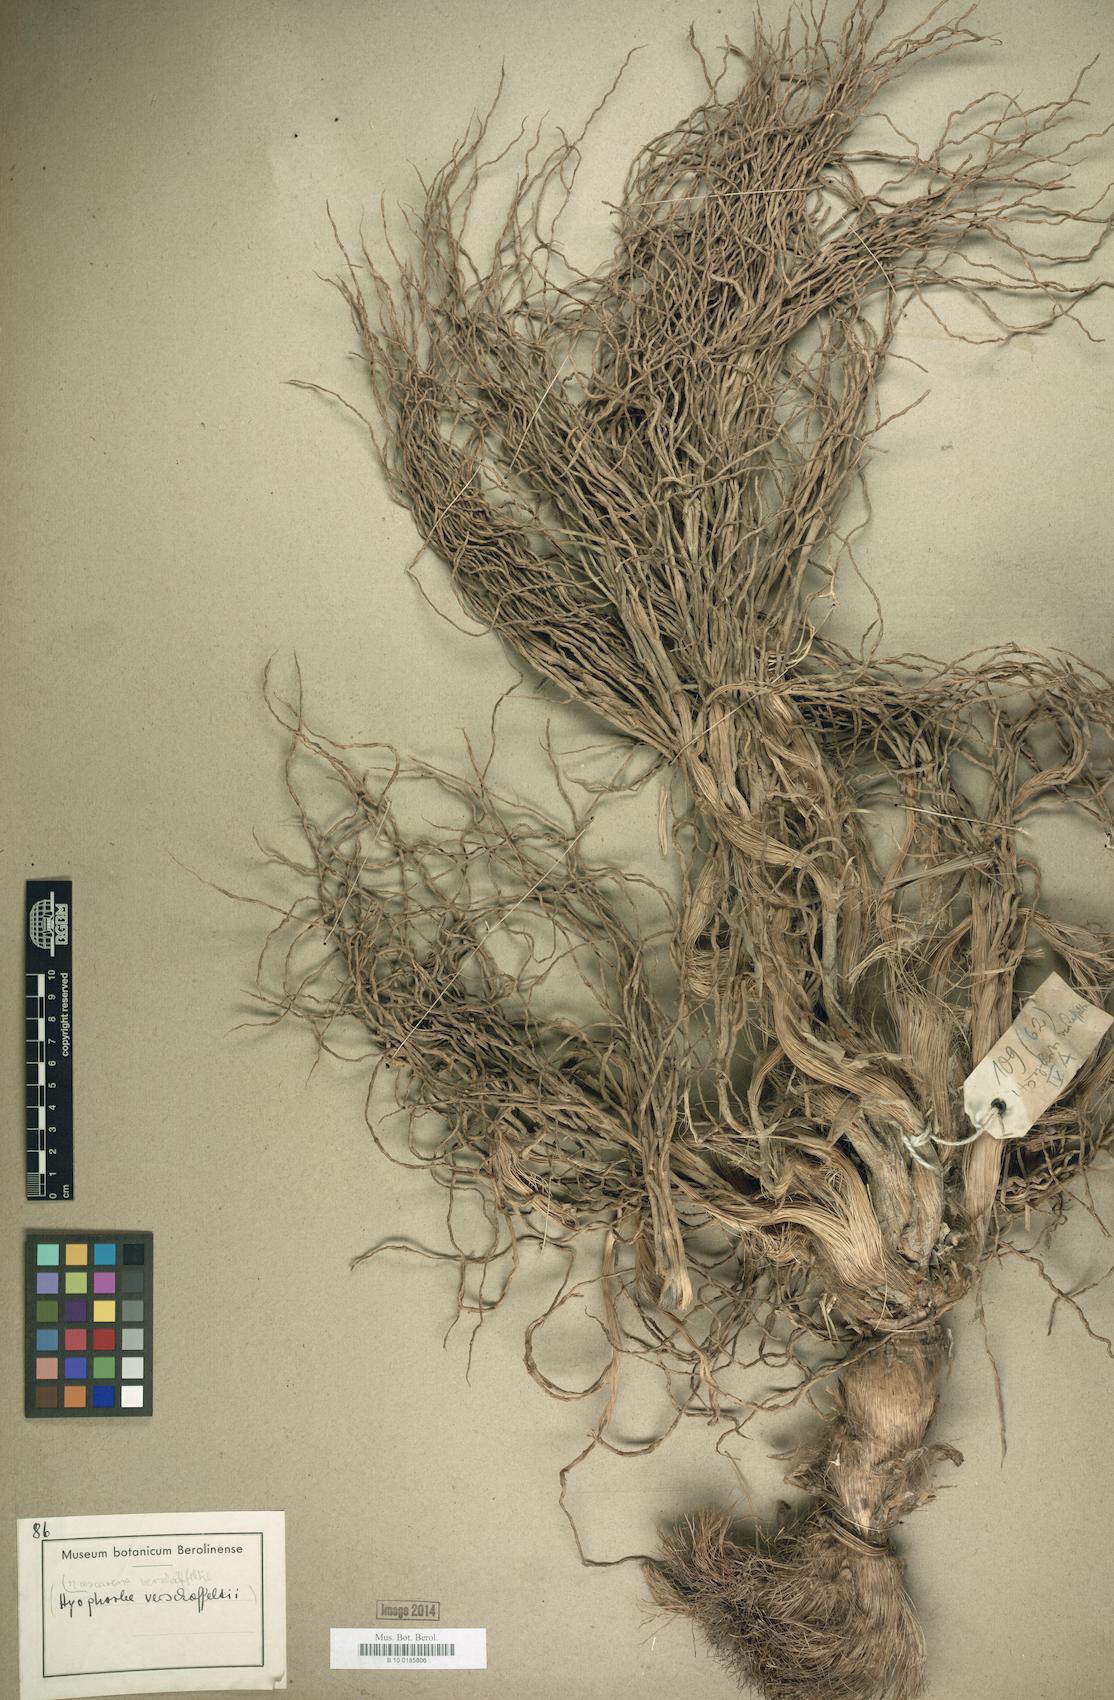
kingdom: Plantae
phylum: Tracheophyta
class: Liliopsida
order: Arecales
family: Arecaceae
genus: Acanthophoenix
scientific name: Acanthophoenix rubra
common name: Barbel palm
